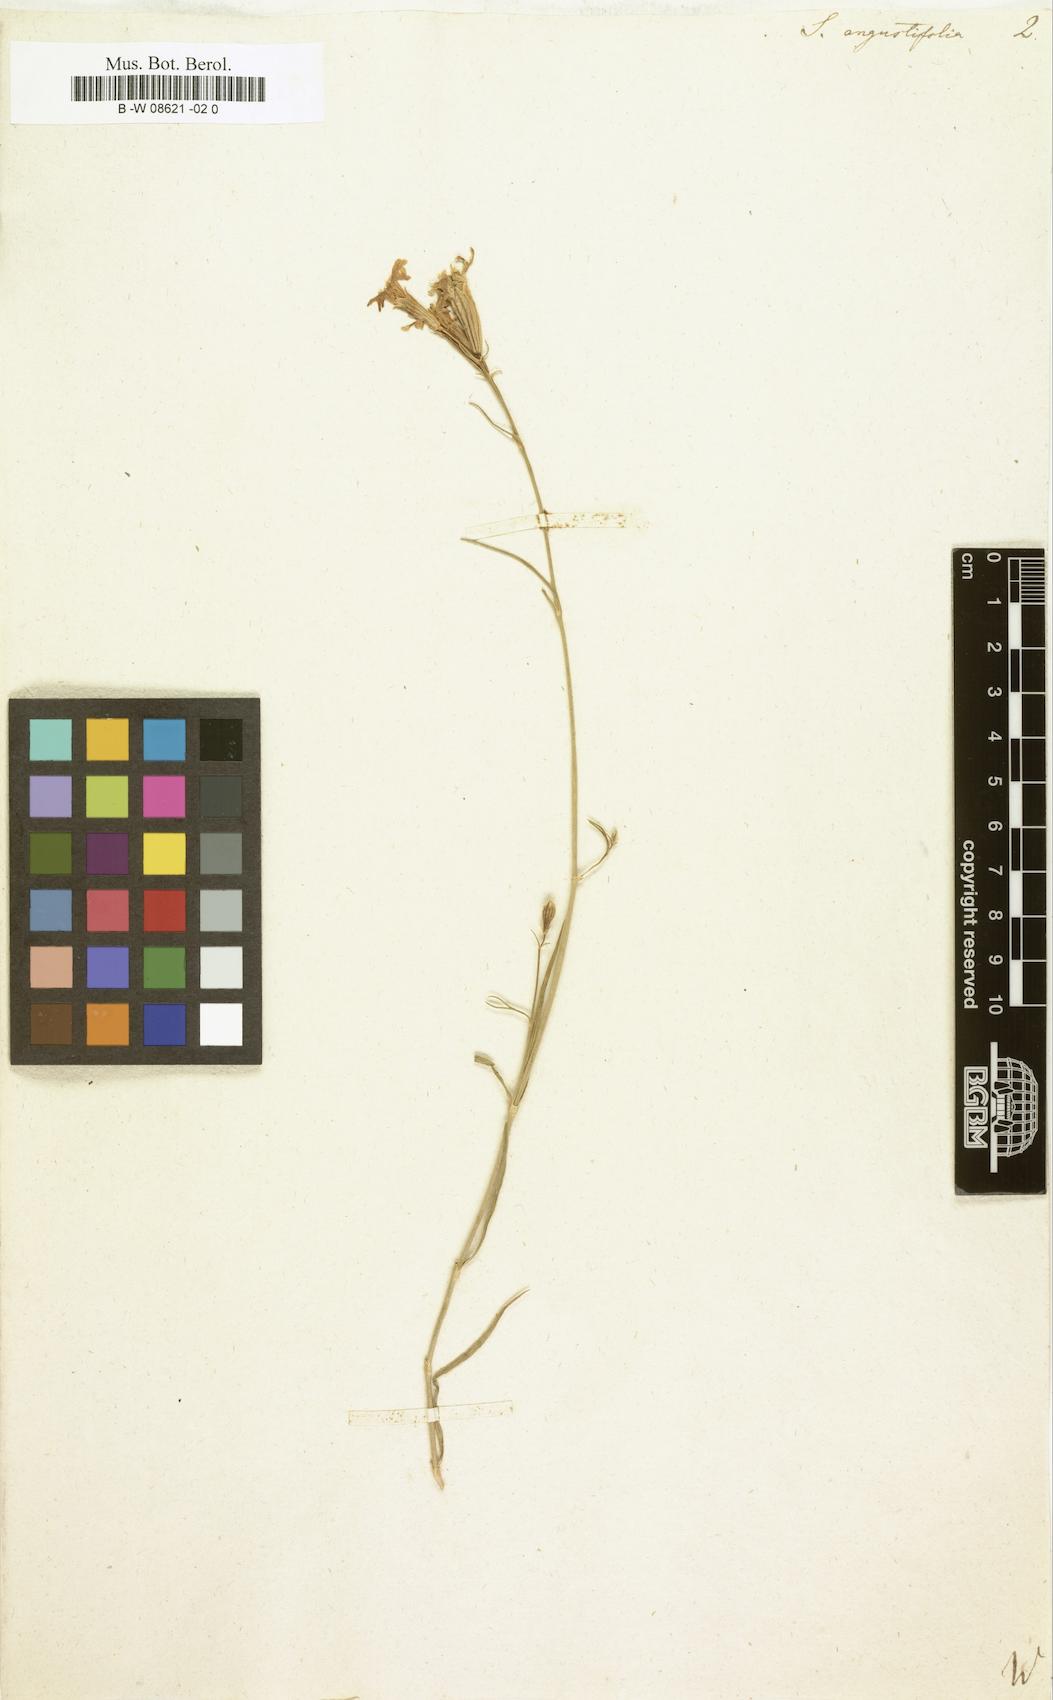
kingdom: Plantae
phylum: Tracheophyta
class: Magnoliopsida
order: Caryophyllales
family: Caryophyllaceae
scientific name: Caryophyllaceae
